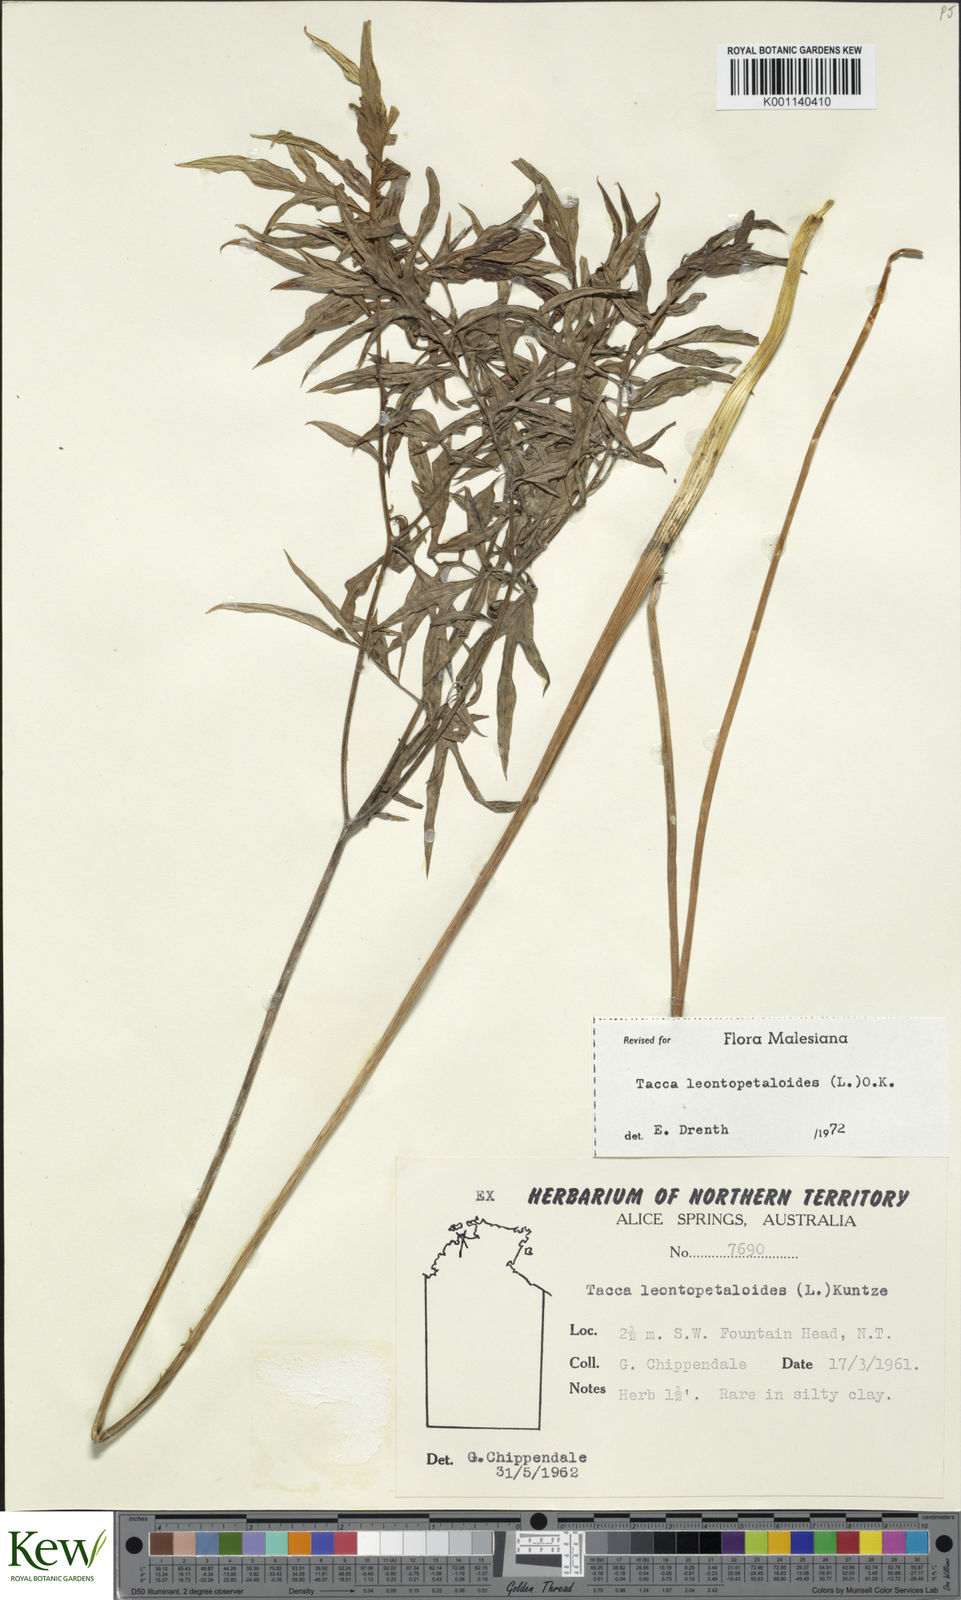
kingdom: Plantae
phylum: Tracheophyta
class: Liliopsida
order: Dioscoreales
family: Dioscoreaceae
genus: Tacca
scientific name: Tacca leontopetaloides
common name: Arrowroot
